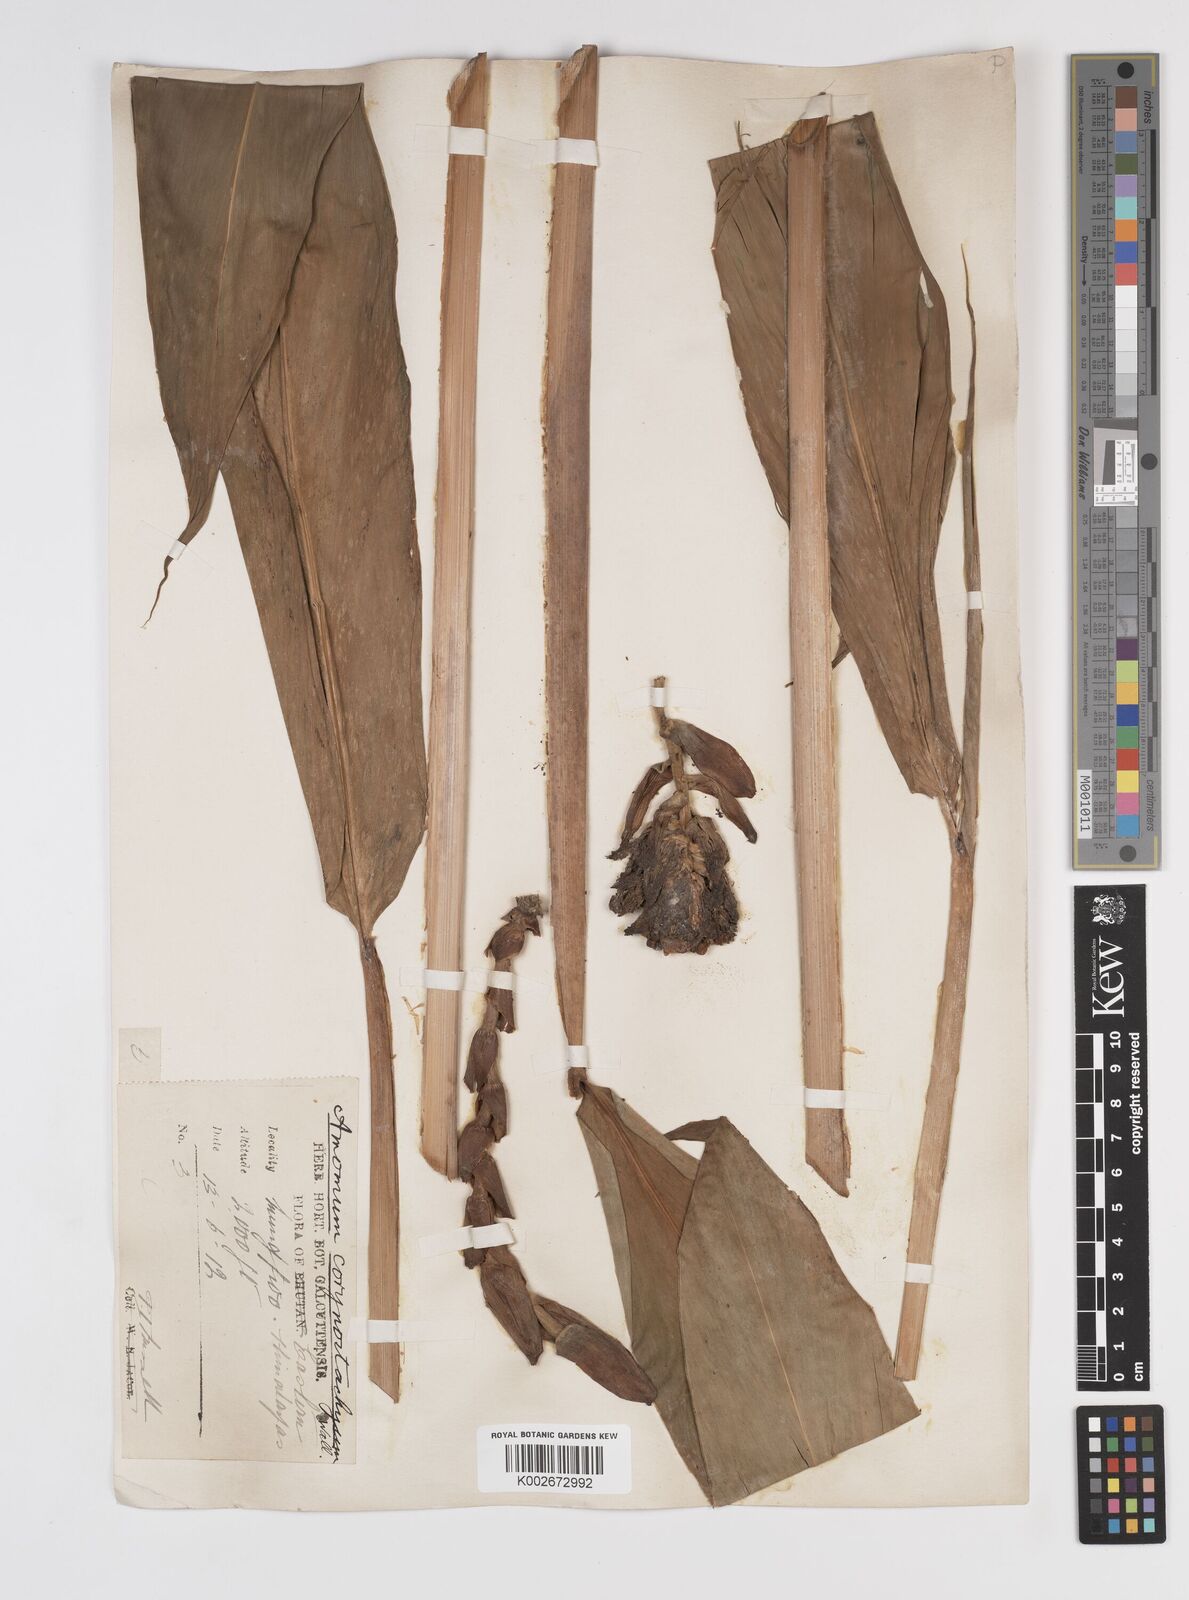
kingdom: Plantae
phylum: Tracheophyta
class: Liliopsida
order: Zingiberales
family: Zingiberaceae
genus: Meistera
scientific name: Meistera koenigii
